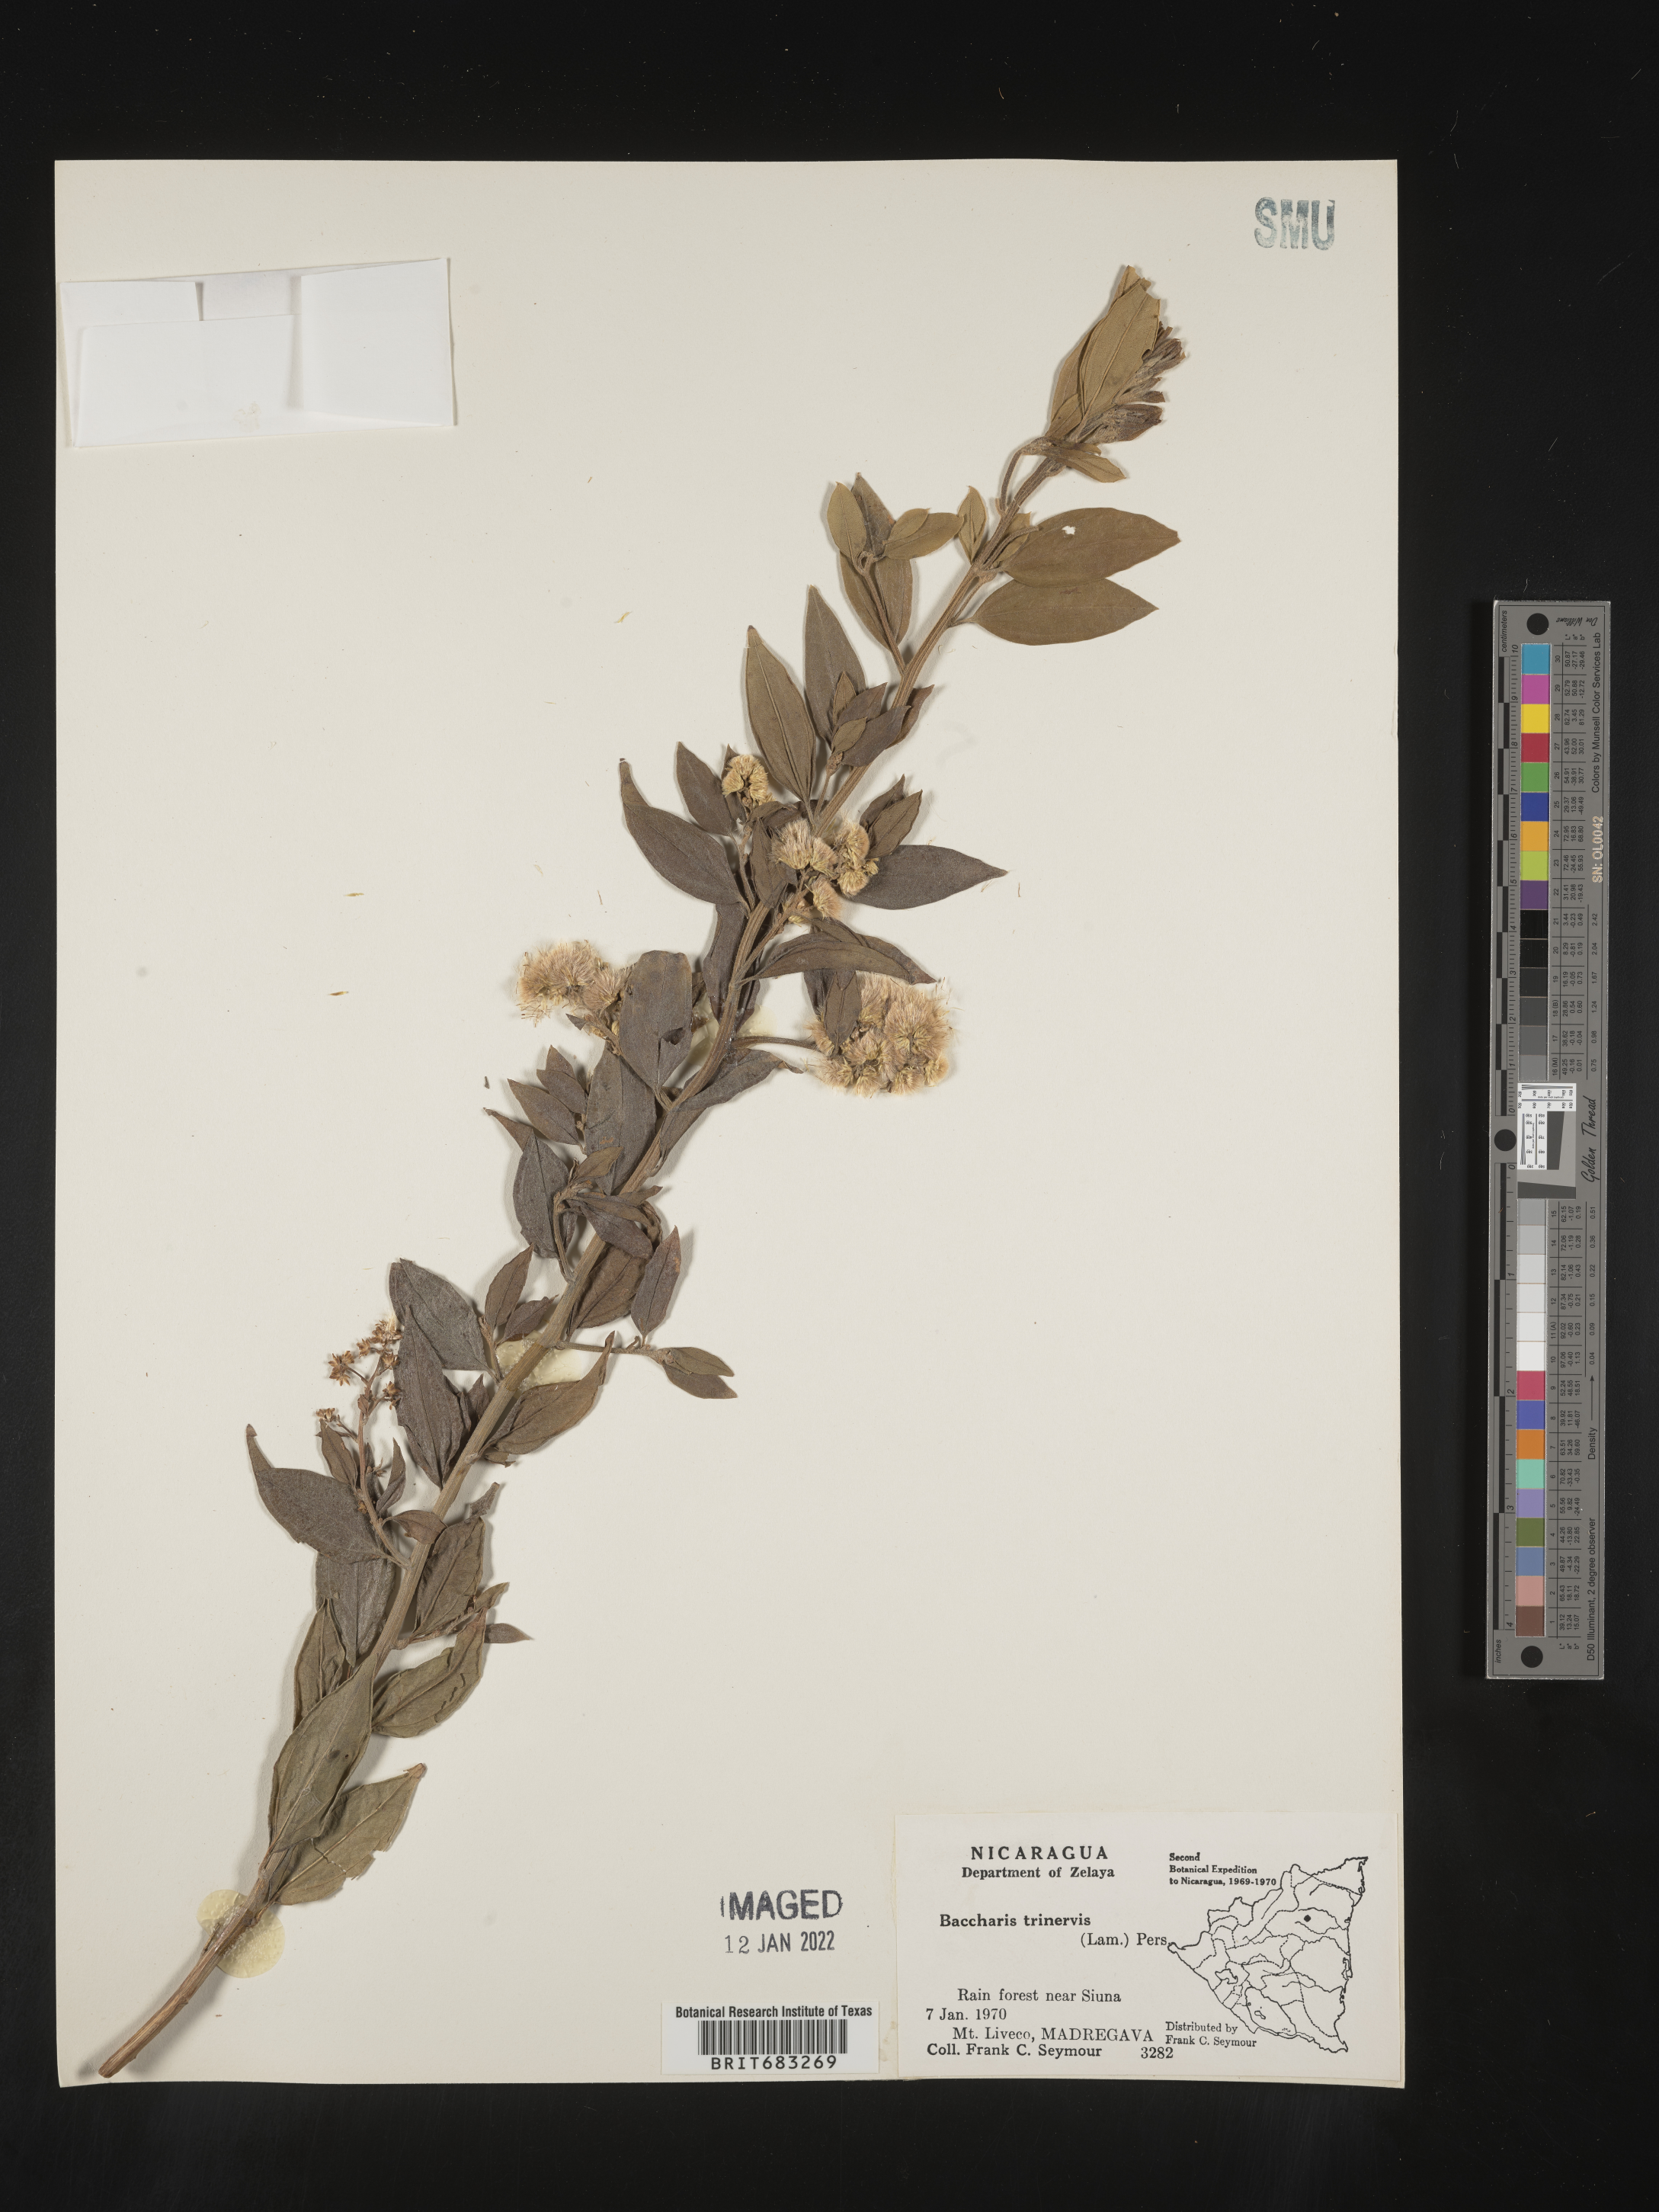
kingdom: Plantae
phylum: Tracheophyta
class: Magnoliopsida
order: Asterales
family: Asteraceae
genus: Baccharis
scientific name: Baccharis trinervis
